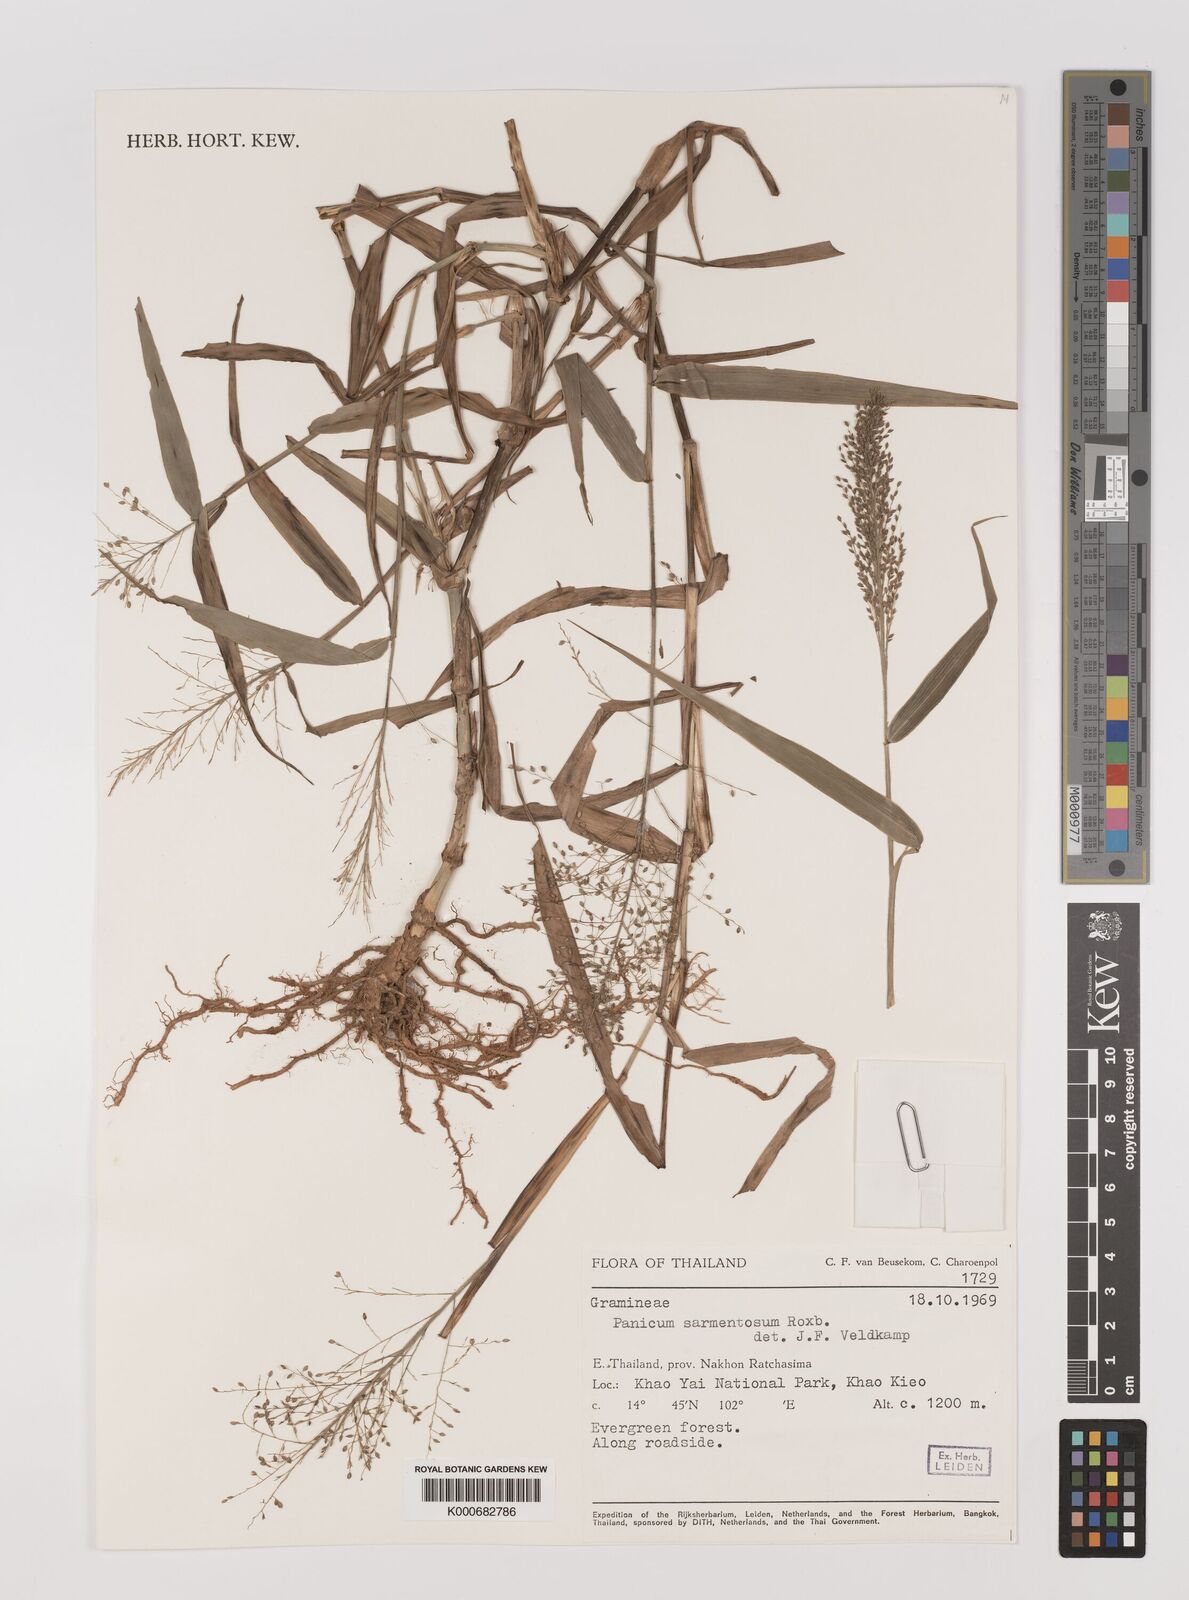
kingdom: Plantae
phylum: Tracheophyta
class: Liliopsida
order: Poales
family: Poaceae
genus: Panicum
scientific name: Panicum sarmentosum
